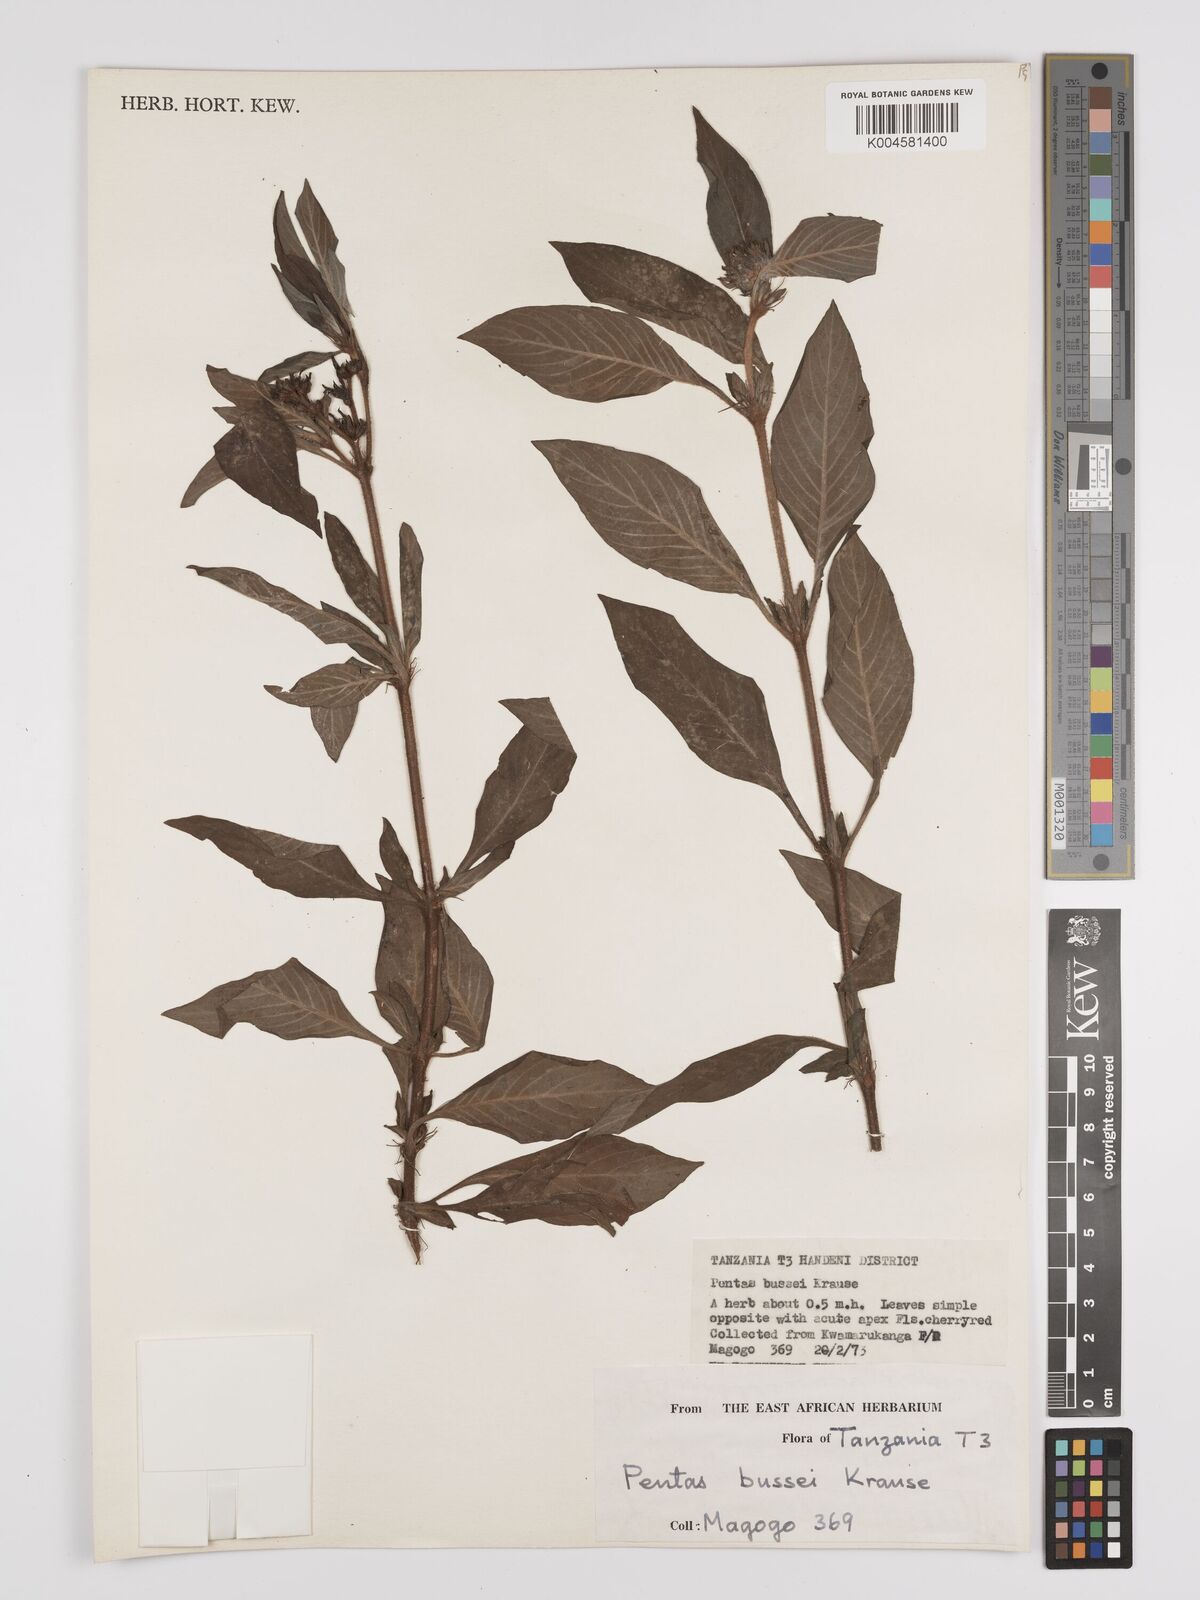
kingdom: Plantae
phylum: Tracheophyta
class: Magnoliopsida
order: Gentianales
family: Rubiaceae
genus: Rhodopentas
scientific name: Rhodopentas bussei
